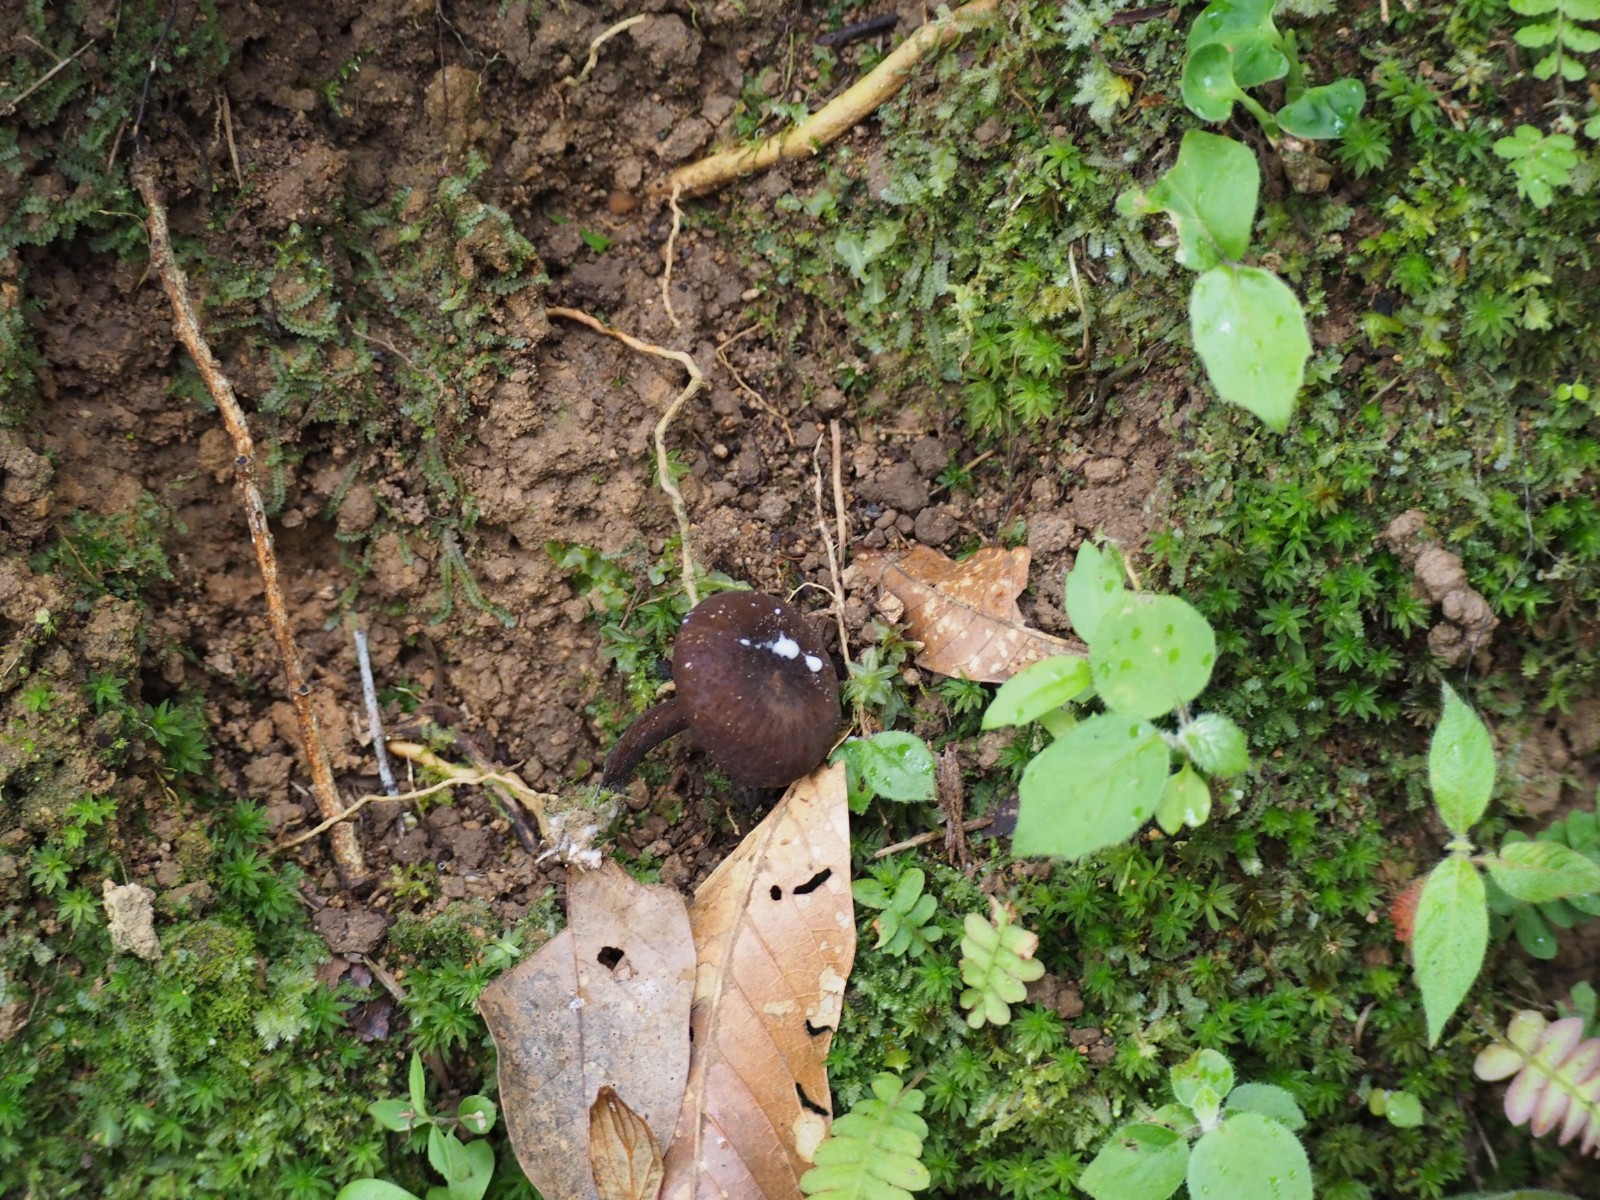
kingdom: Fungi
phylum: Basidiomycota
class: Agaricomycetes
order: Russulales
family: Russulaceae
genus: Lactarius
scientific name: Lactarius
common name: mælkehat
